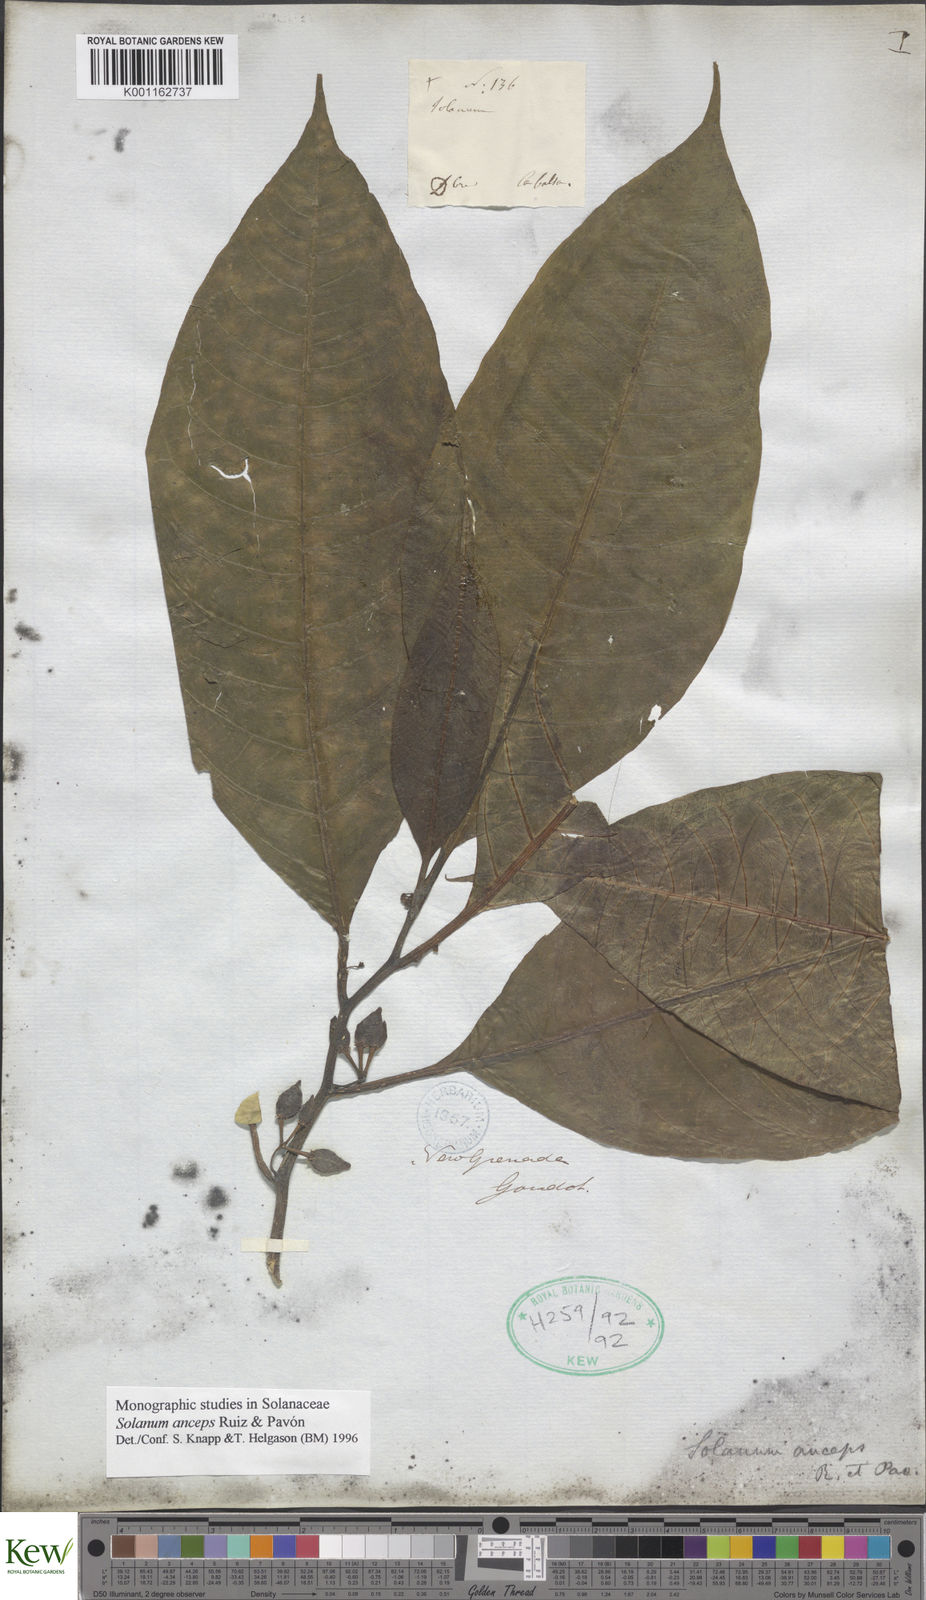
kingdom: Plantae
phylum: Tracheophyta
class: Magnoliopsida
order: Solanales
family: Solanaceae
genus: Solanum
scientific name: Solanum anceps
